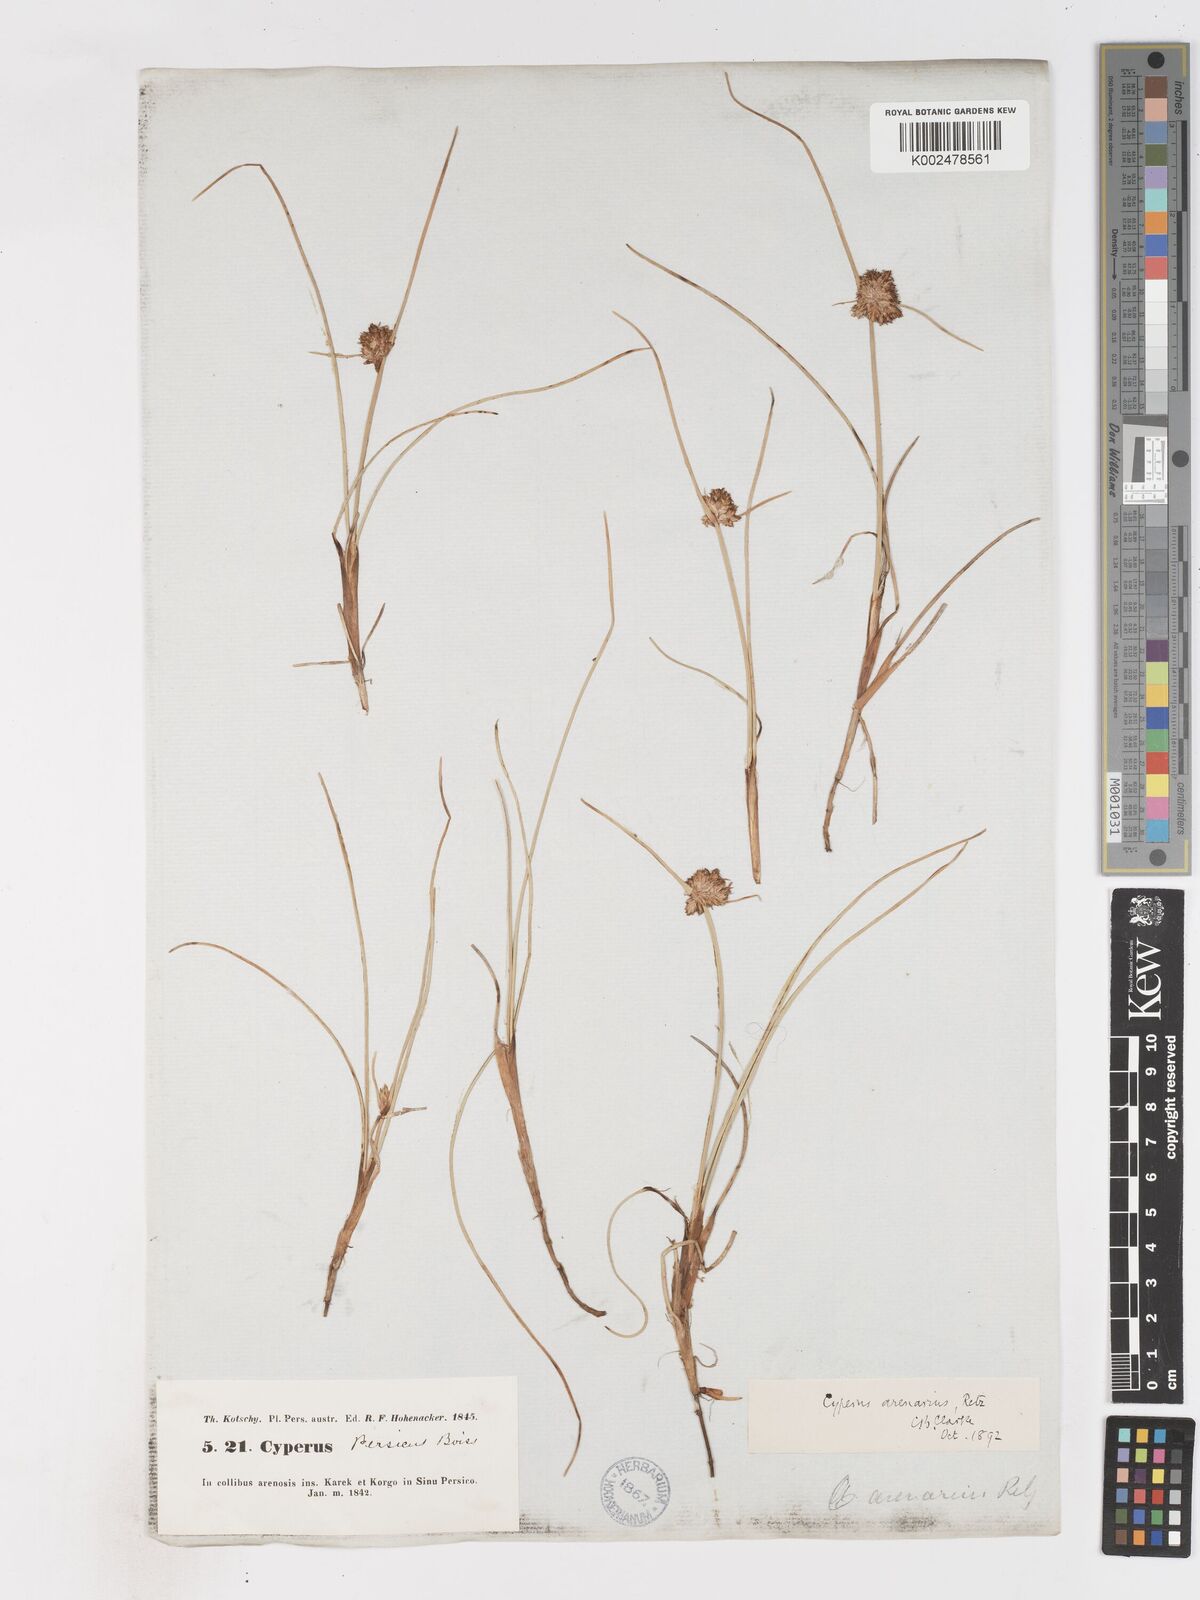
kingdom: Plantae
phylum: Tracheophyta
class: Liliopsida
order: Poales
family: Cyperaceae
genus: Cyperus
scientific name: Cyperus arenarius
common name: Dwarf sedge
